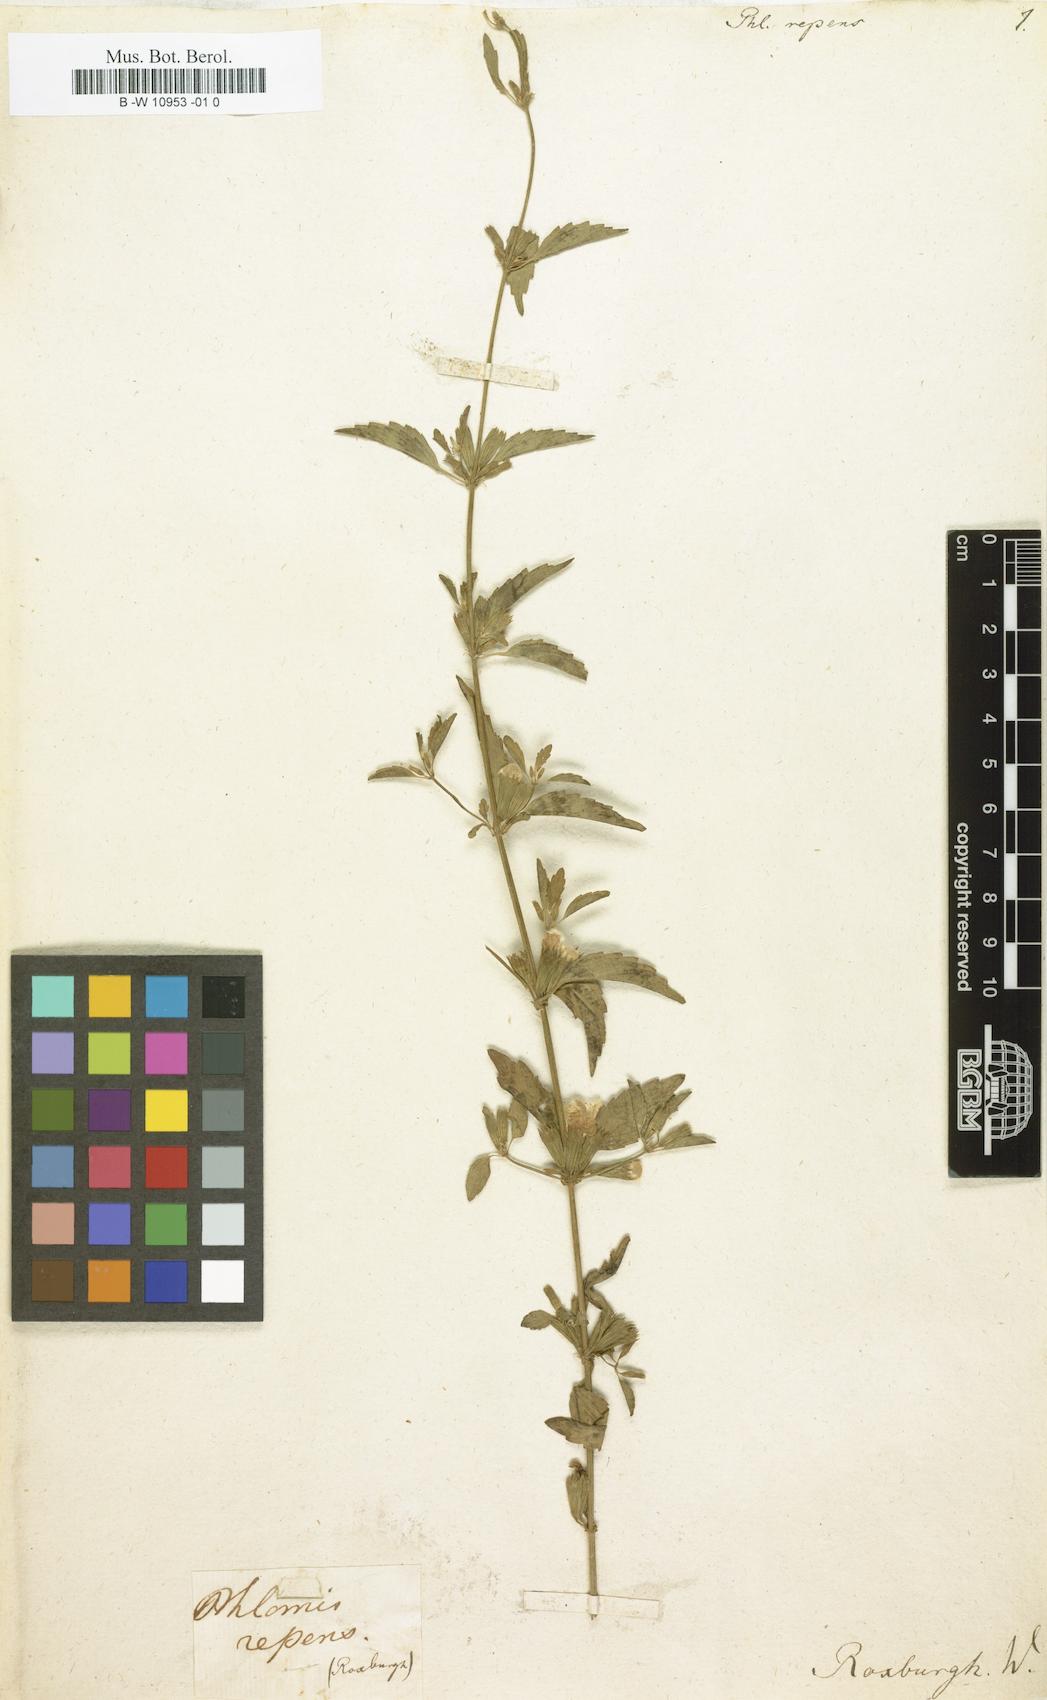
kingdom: Plantae
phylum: Tracheophyta
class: Magnoliopsida
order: Lamiales
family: Lamiaceae
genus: Phlomis
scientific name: Phlomis repens
